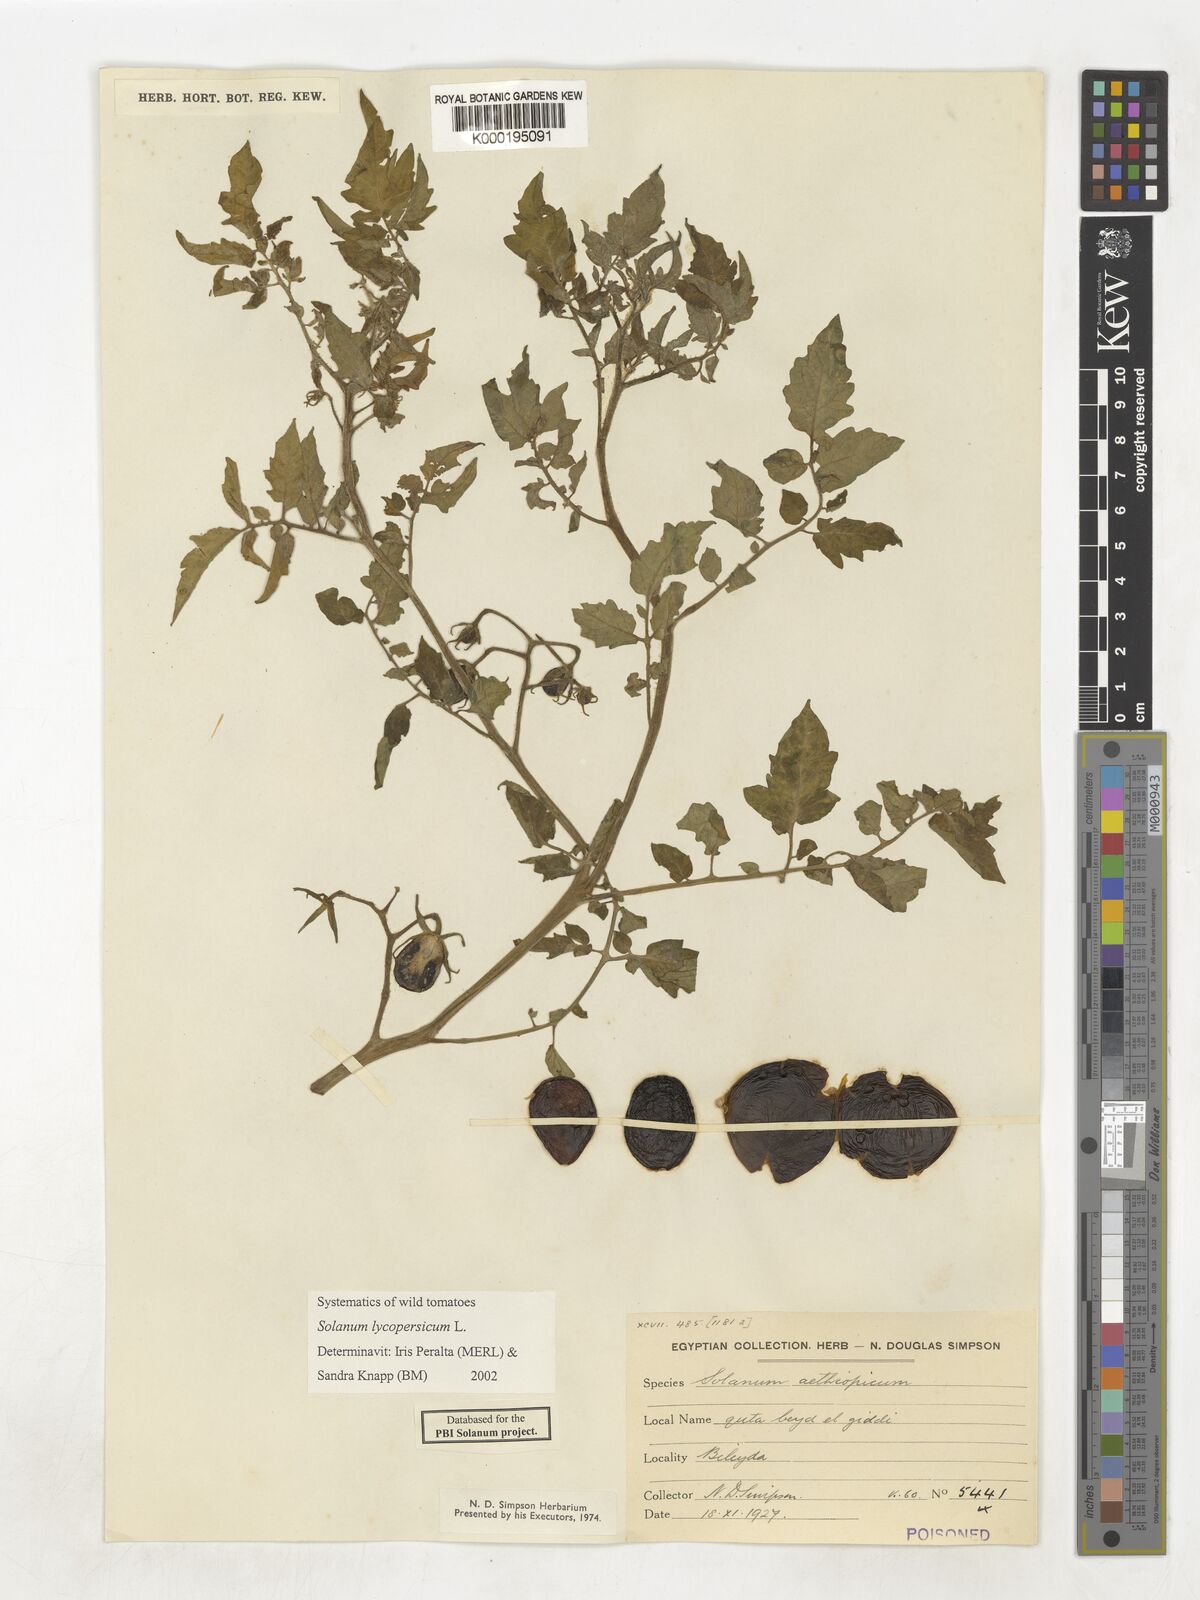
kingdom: Plantae
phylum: Tracheophyta
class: Magnoliopsida
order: Solanales
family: Solanaceae
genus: Solanum
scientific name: Solanum lycopersicum
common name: Garden tomato
